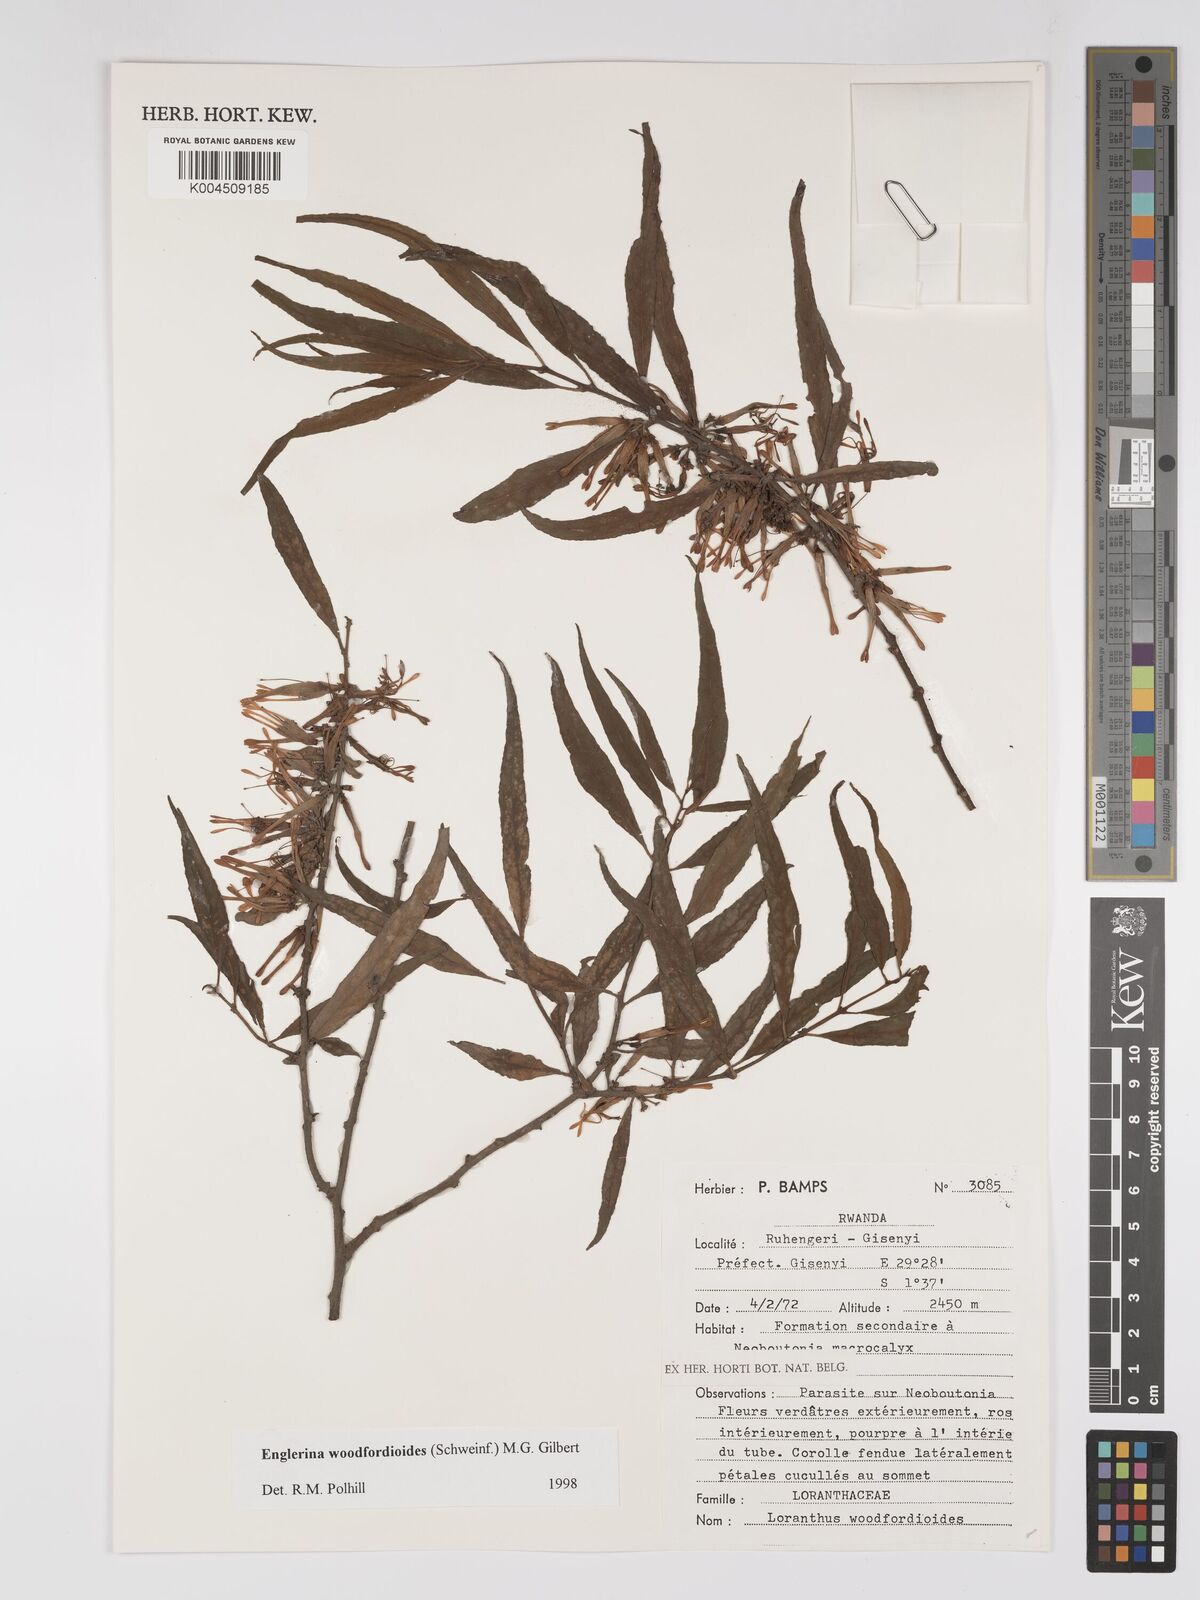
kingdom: Plantae
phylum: Tracheophyta
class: Magnoliopsida
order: Santalales
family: Loranthaceae
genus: Englerina
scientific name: Englerina woodfordioides
